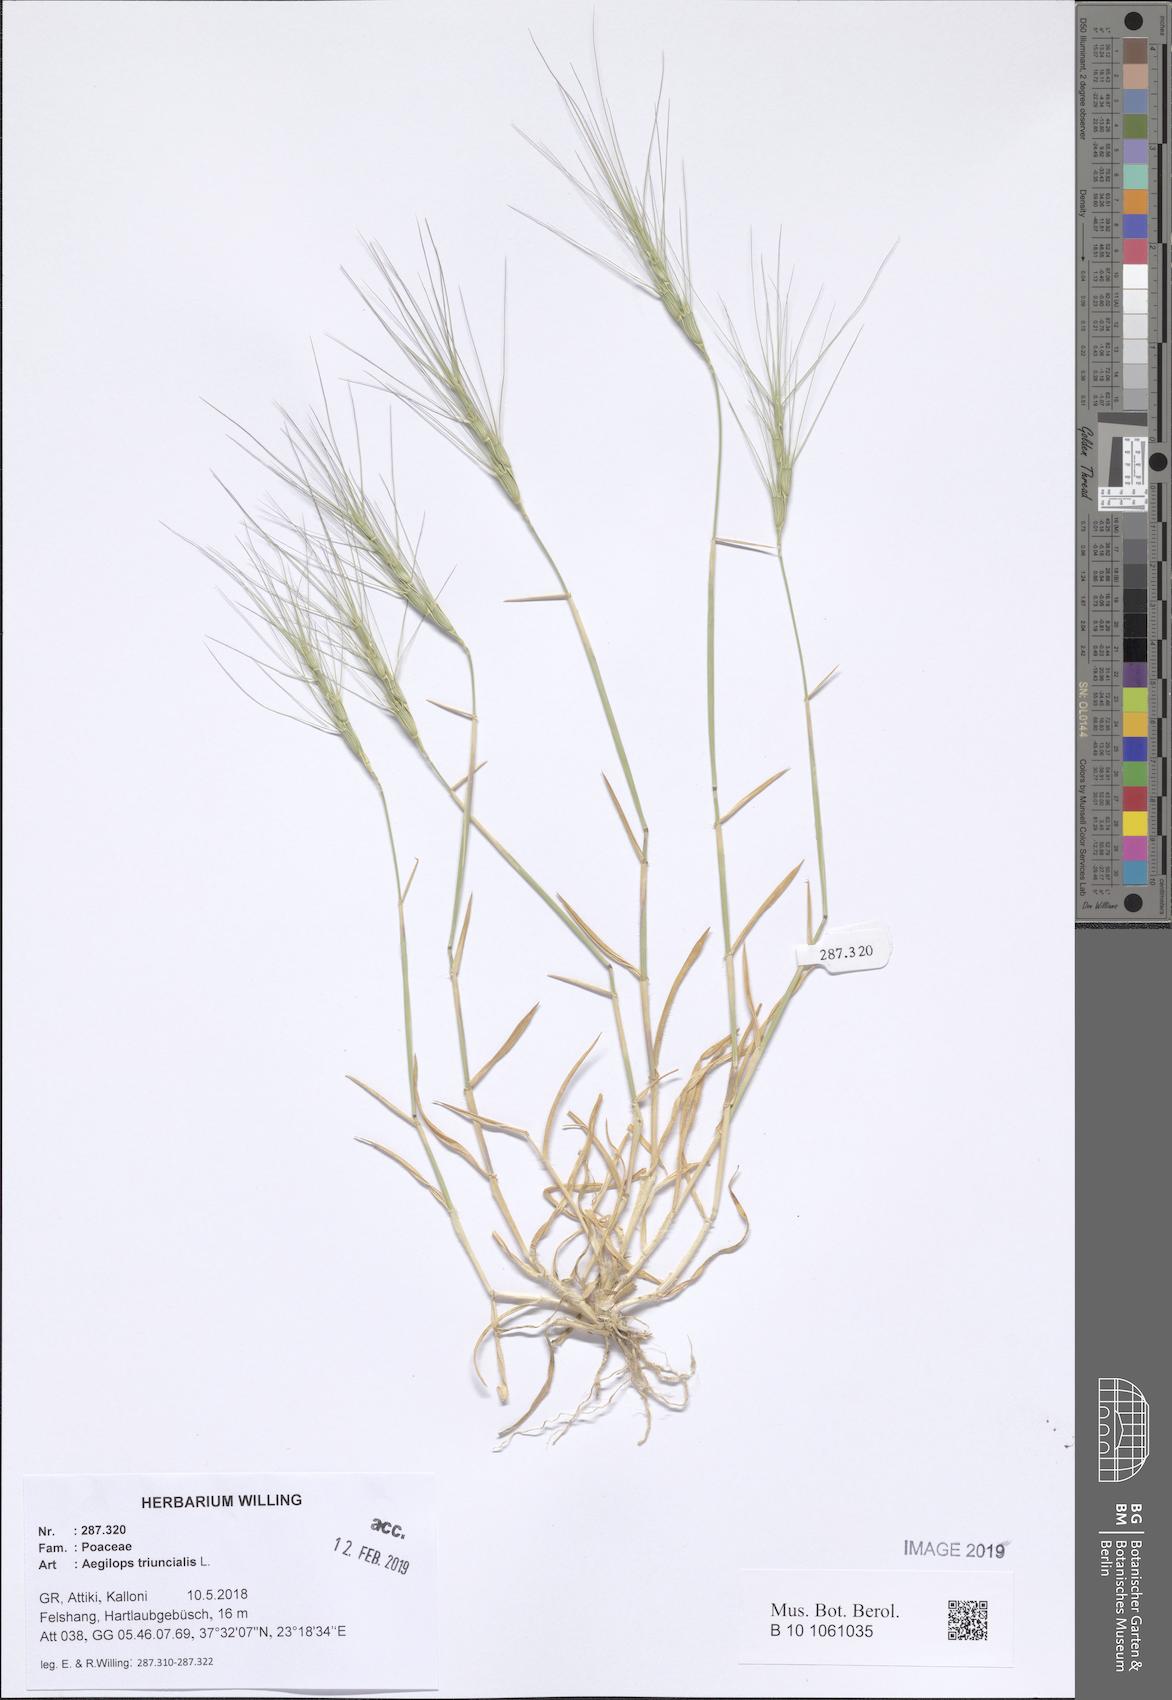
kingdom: Plantae
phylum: Tracheophyta
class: Liliopsida
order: Poales
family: Poaceae
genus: Aegilops
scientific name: Aegilops triuncialis
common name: Barb goat grass
